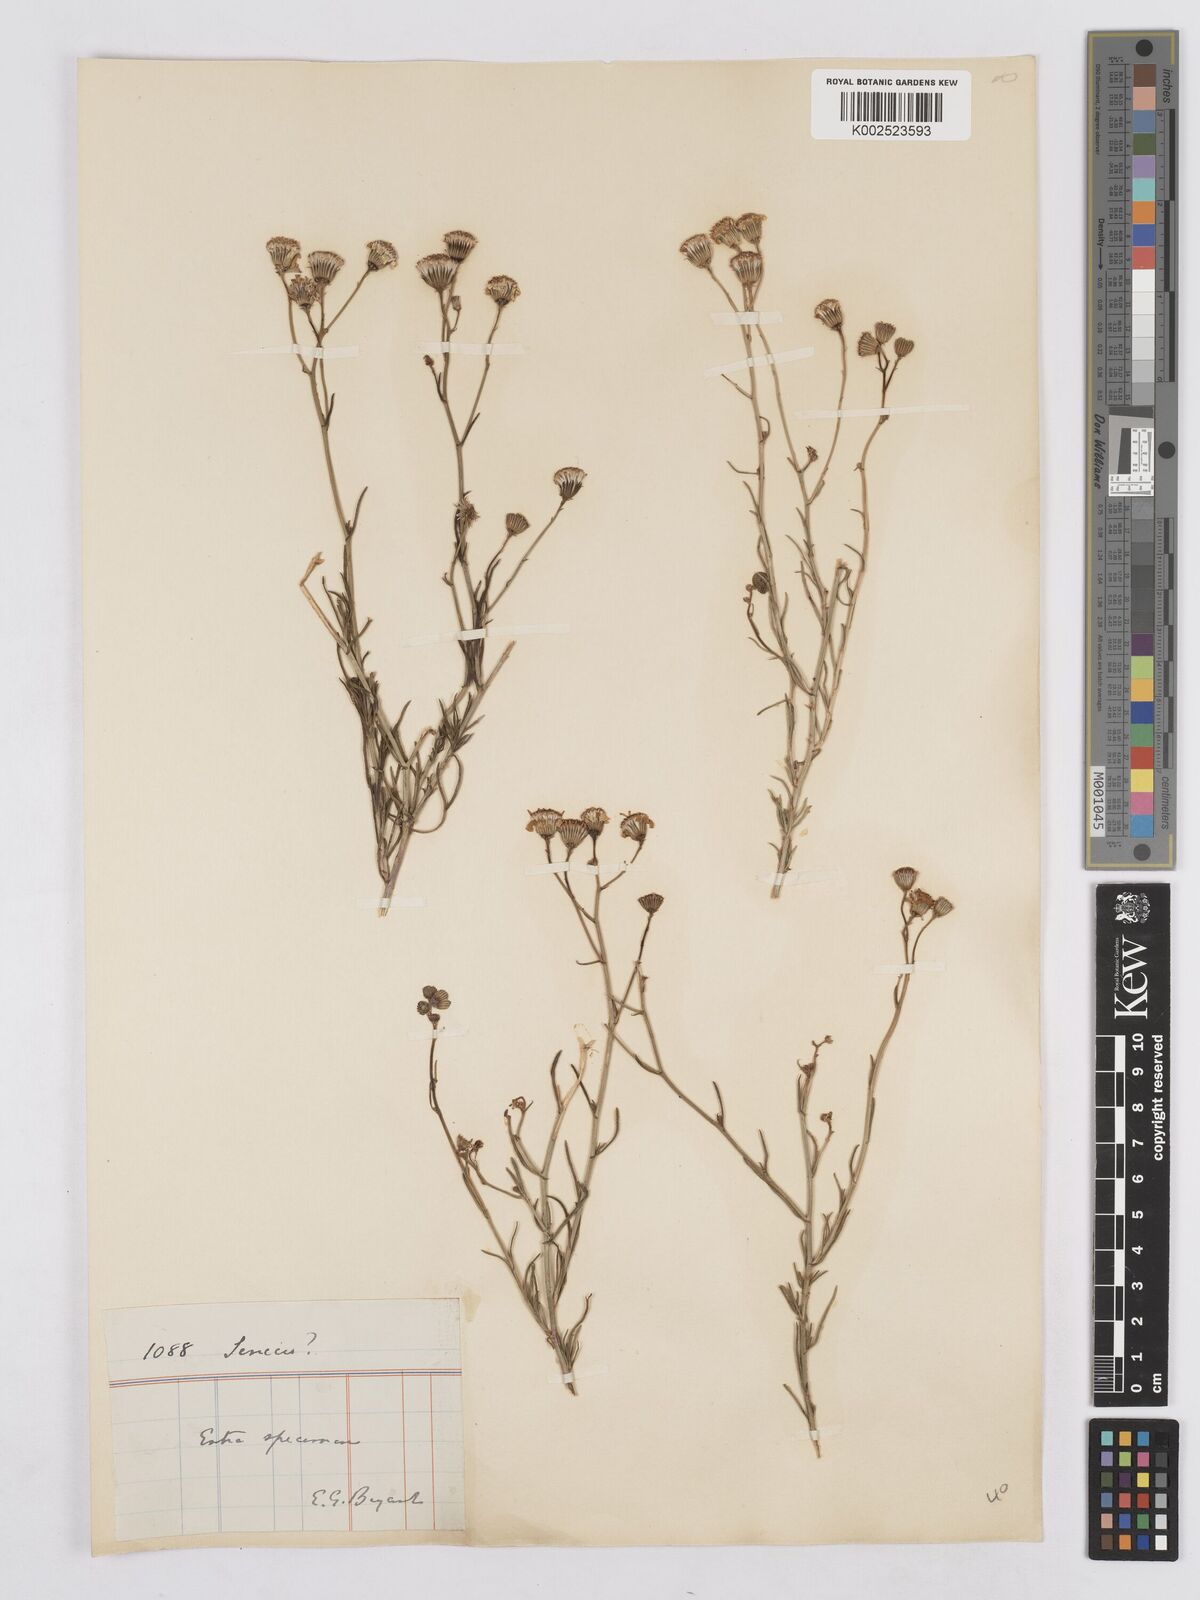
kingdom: Plantae
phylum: Tracheophyta
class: Magnoliopsida
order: Asterales
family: Asteraceae
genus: Senecio
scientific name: Senecio inaequidens
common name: Narrow-leaved ragwort
